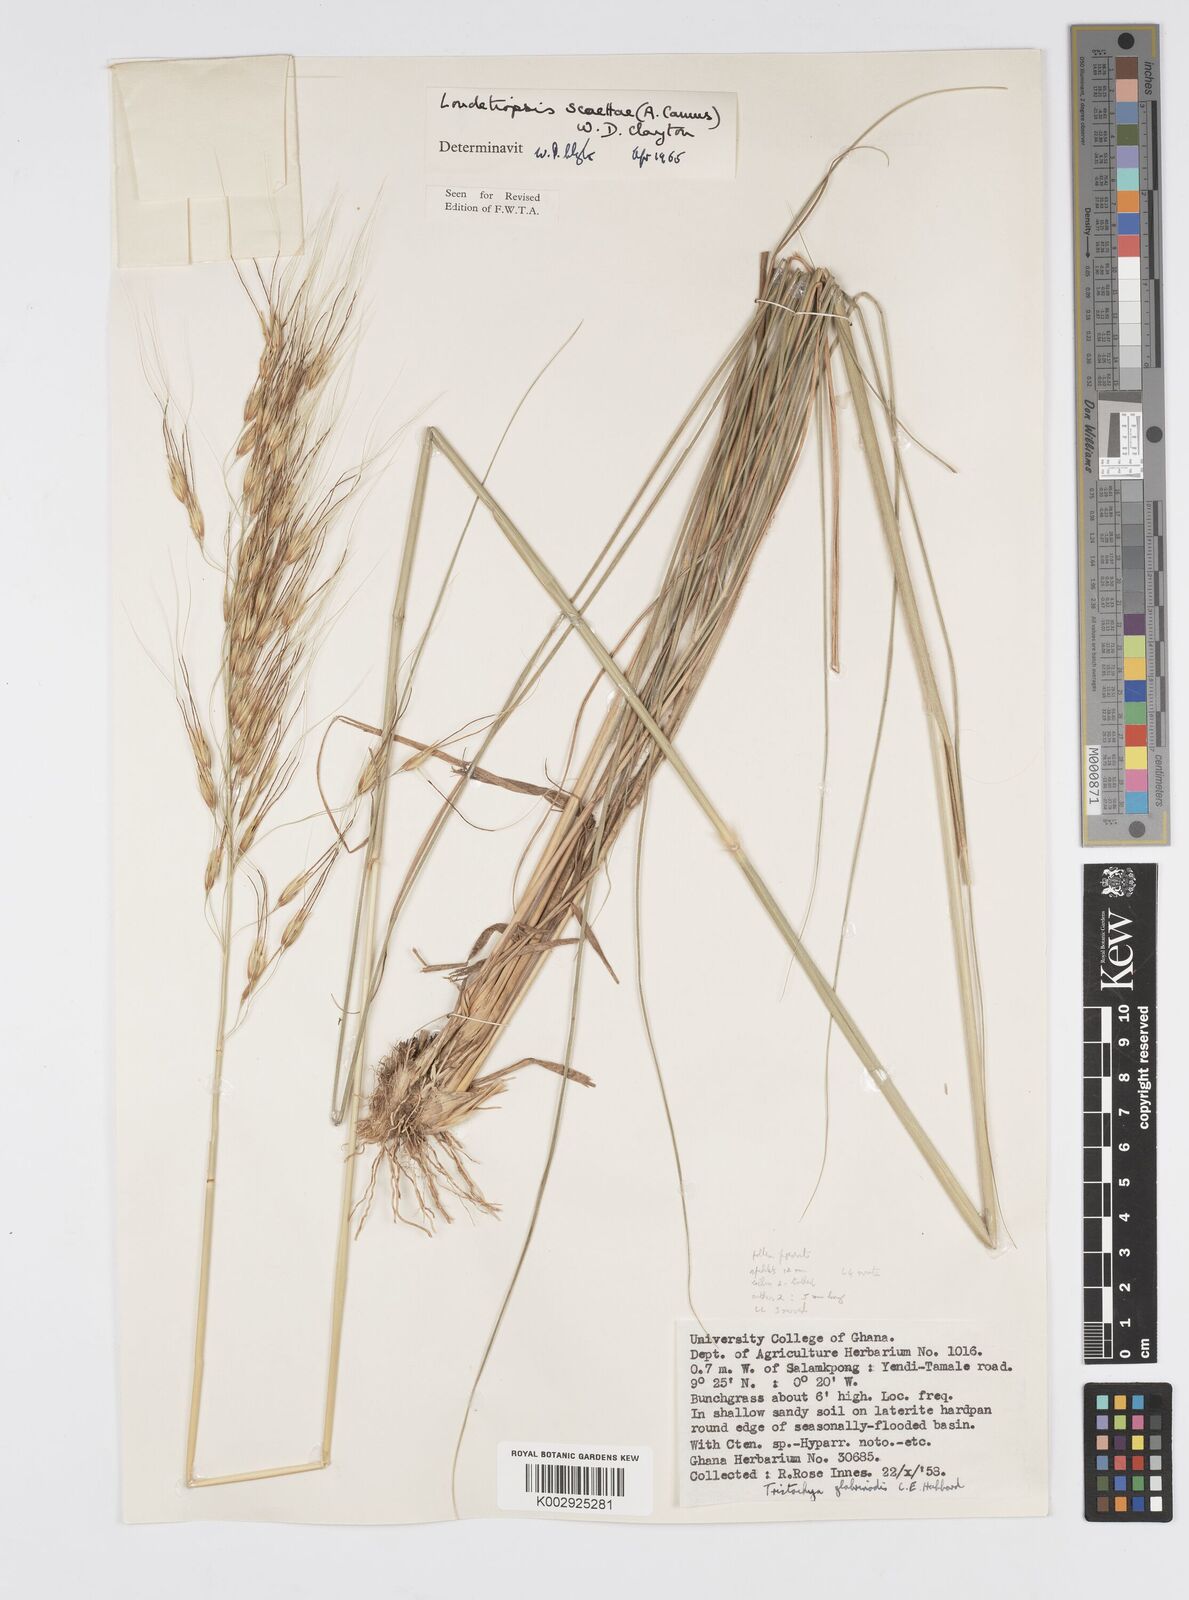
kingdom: Plantae
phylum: Tracheophyta
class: Liliopsida
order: Poales
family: Poaceae
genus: Loudetiopsis
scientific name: Loudetiopsis scaettae
